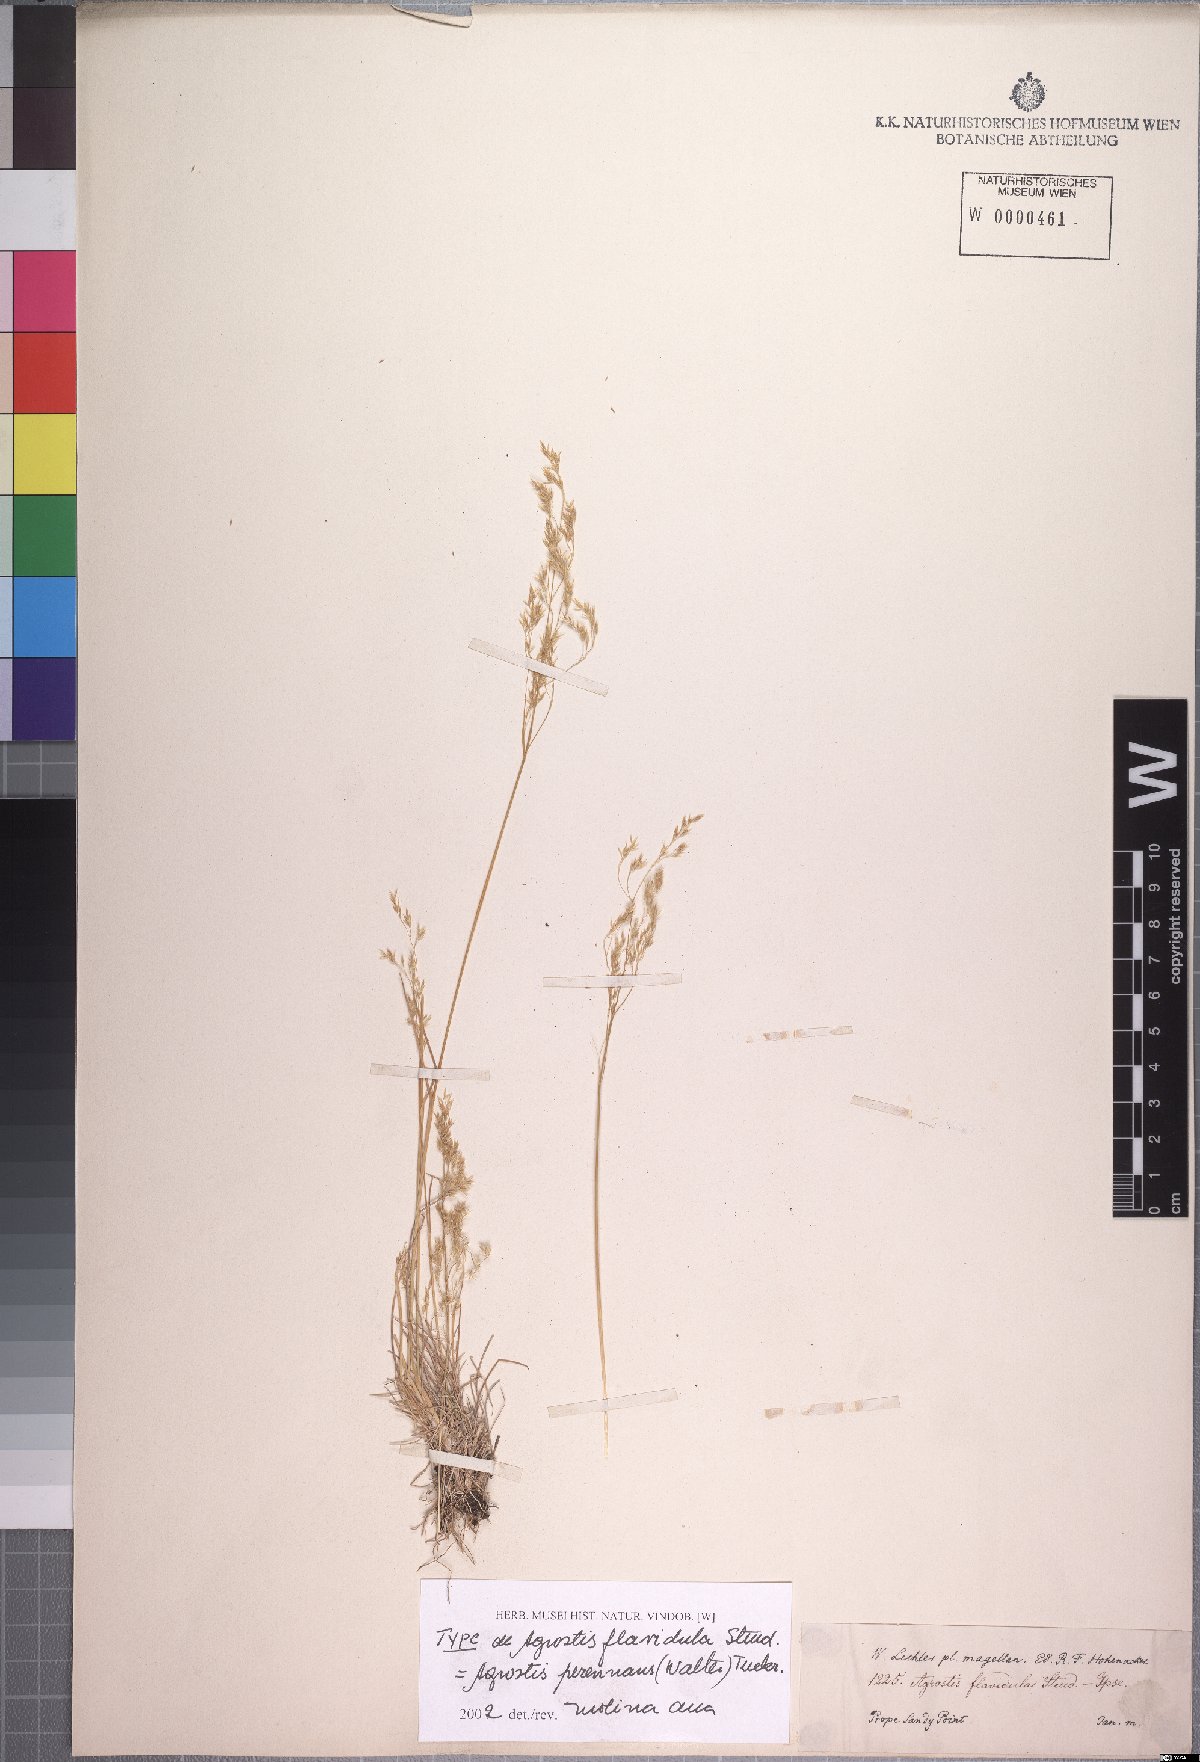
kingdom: Plantae
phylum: Tracheophyta
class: Liliopsida
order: Poales
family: Poaceae
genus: Agrostis
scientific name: Agrostis perennans
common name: Autumn bent
